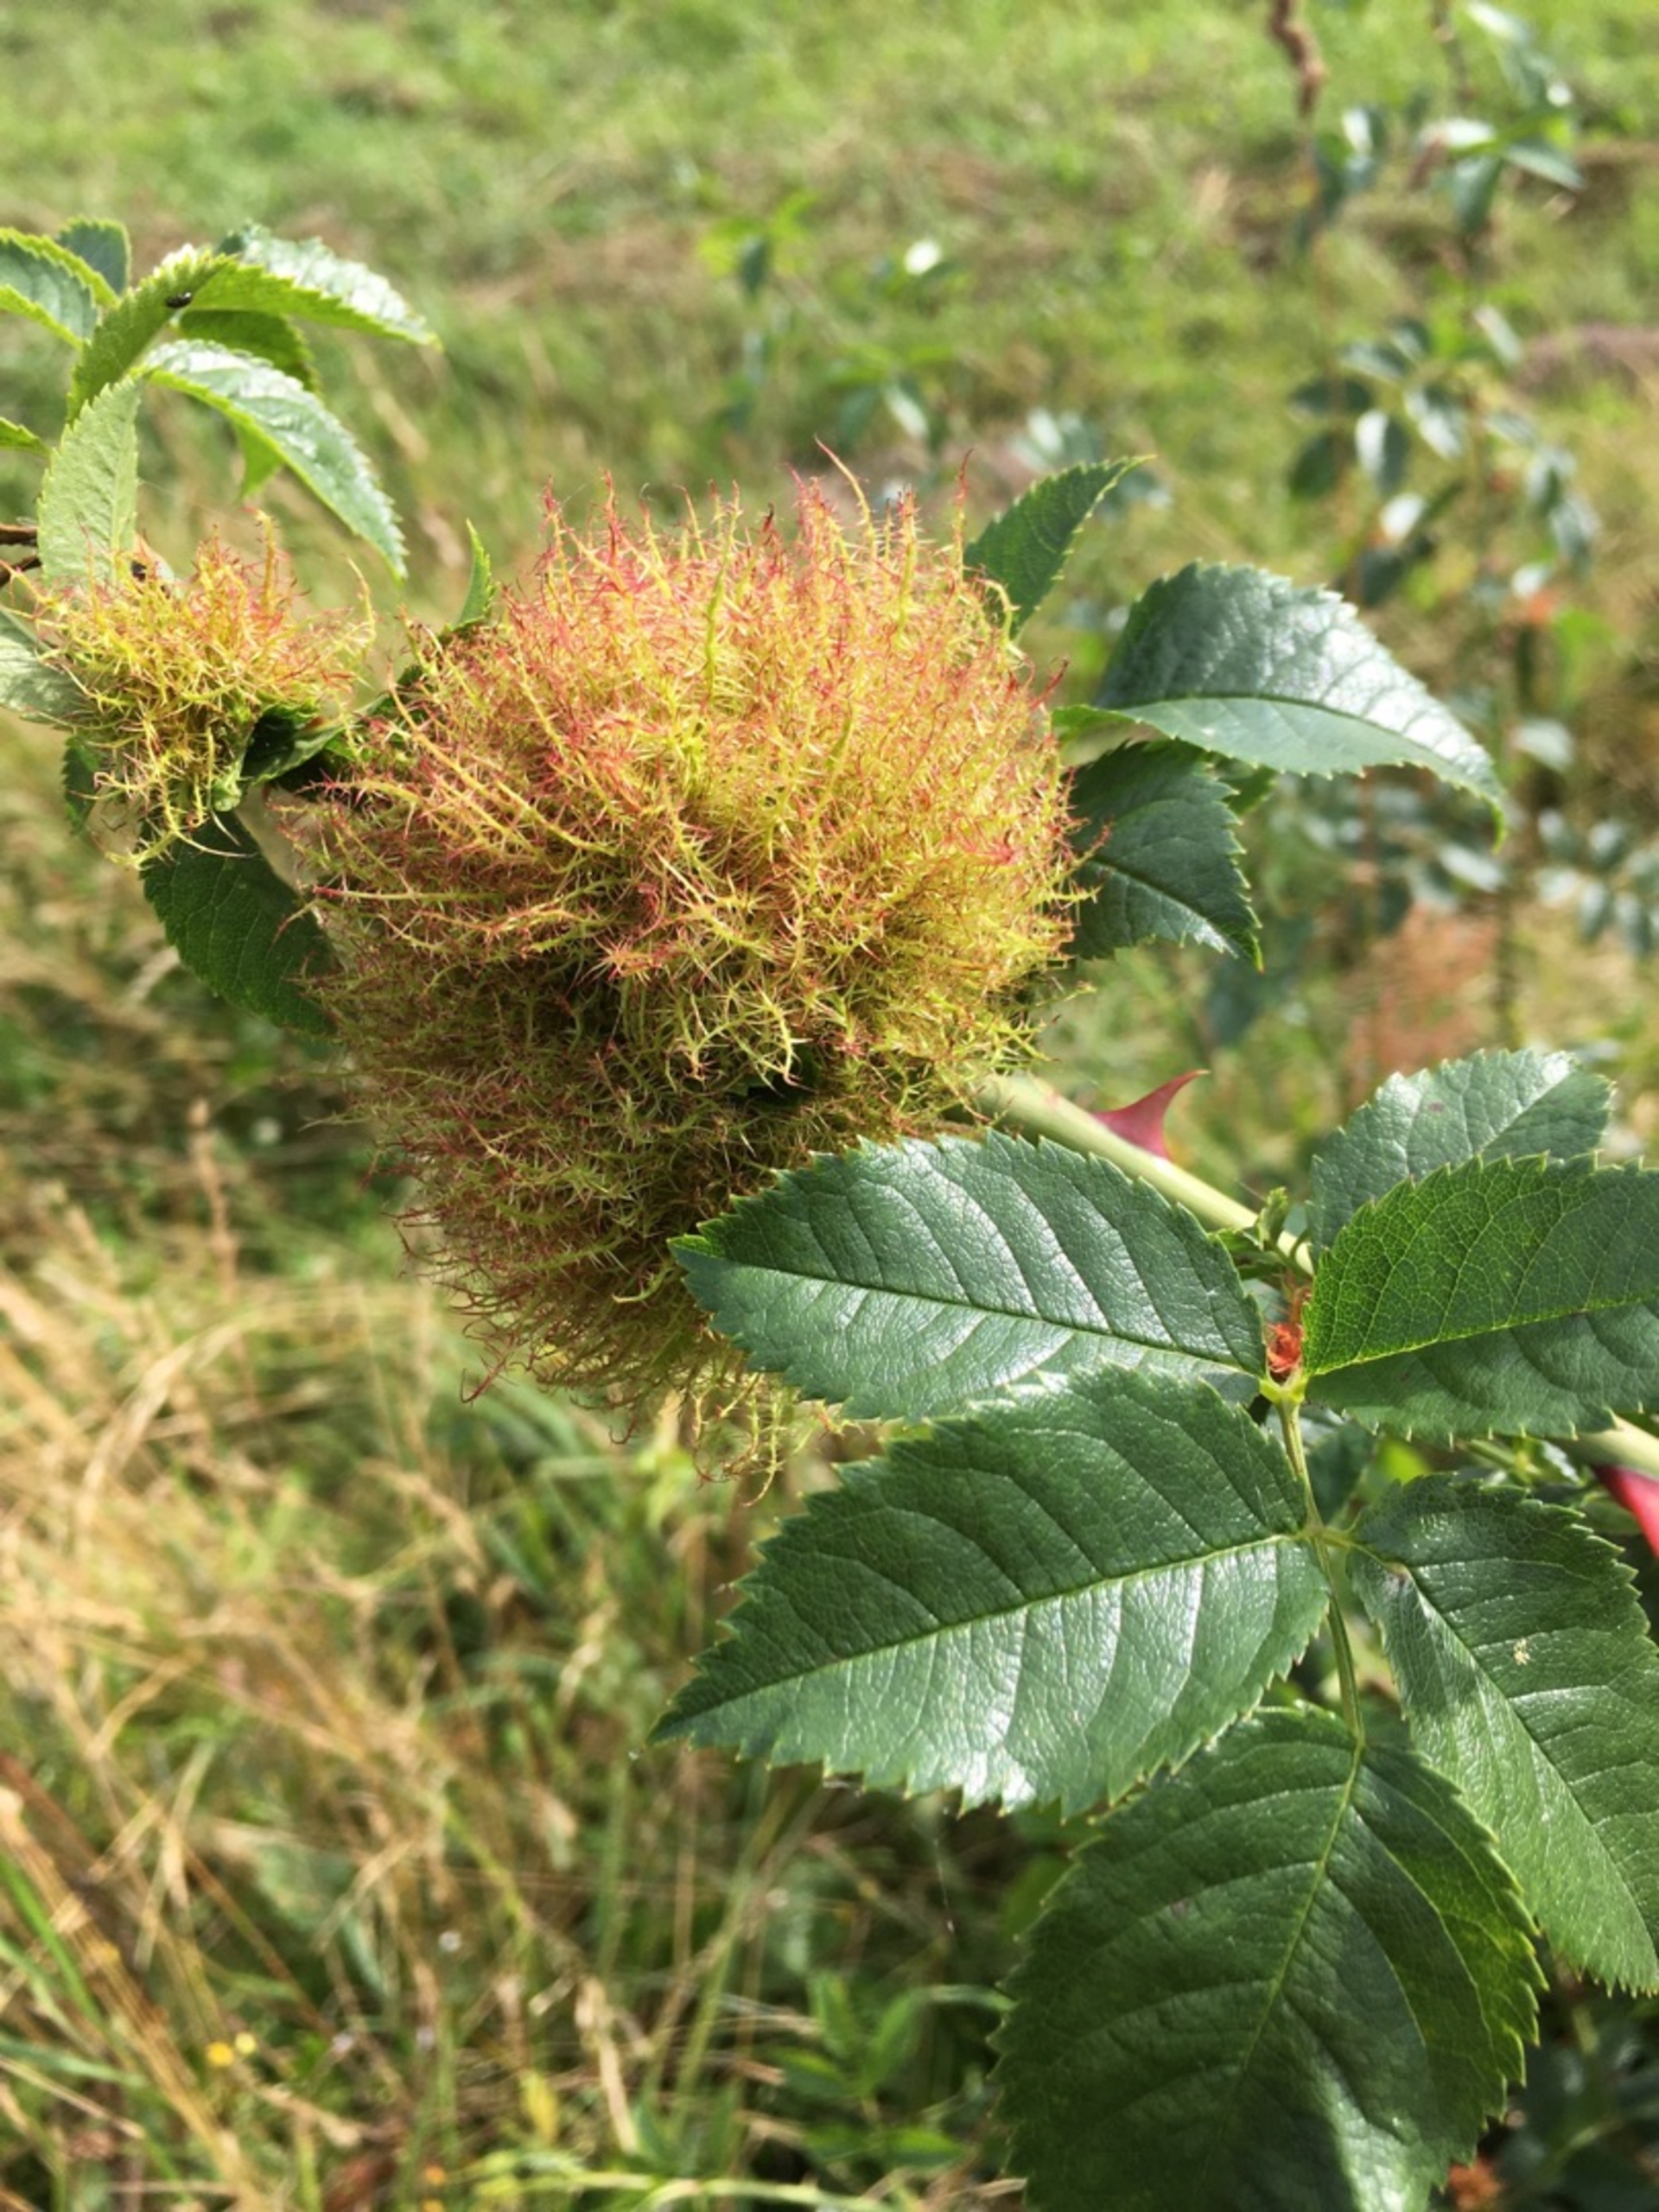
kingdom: Animalia
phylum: Arthropoda
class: Insecta
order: Hymenoptera
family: Cynipidae
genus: Diplolepis
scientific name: Diplolepis rosae
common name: Bedeguargalhveps
